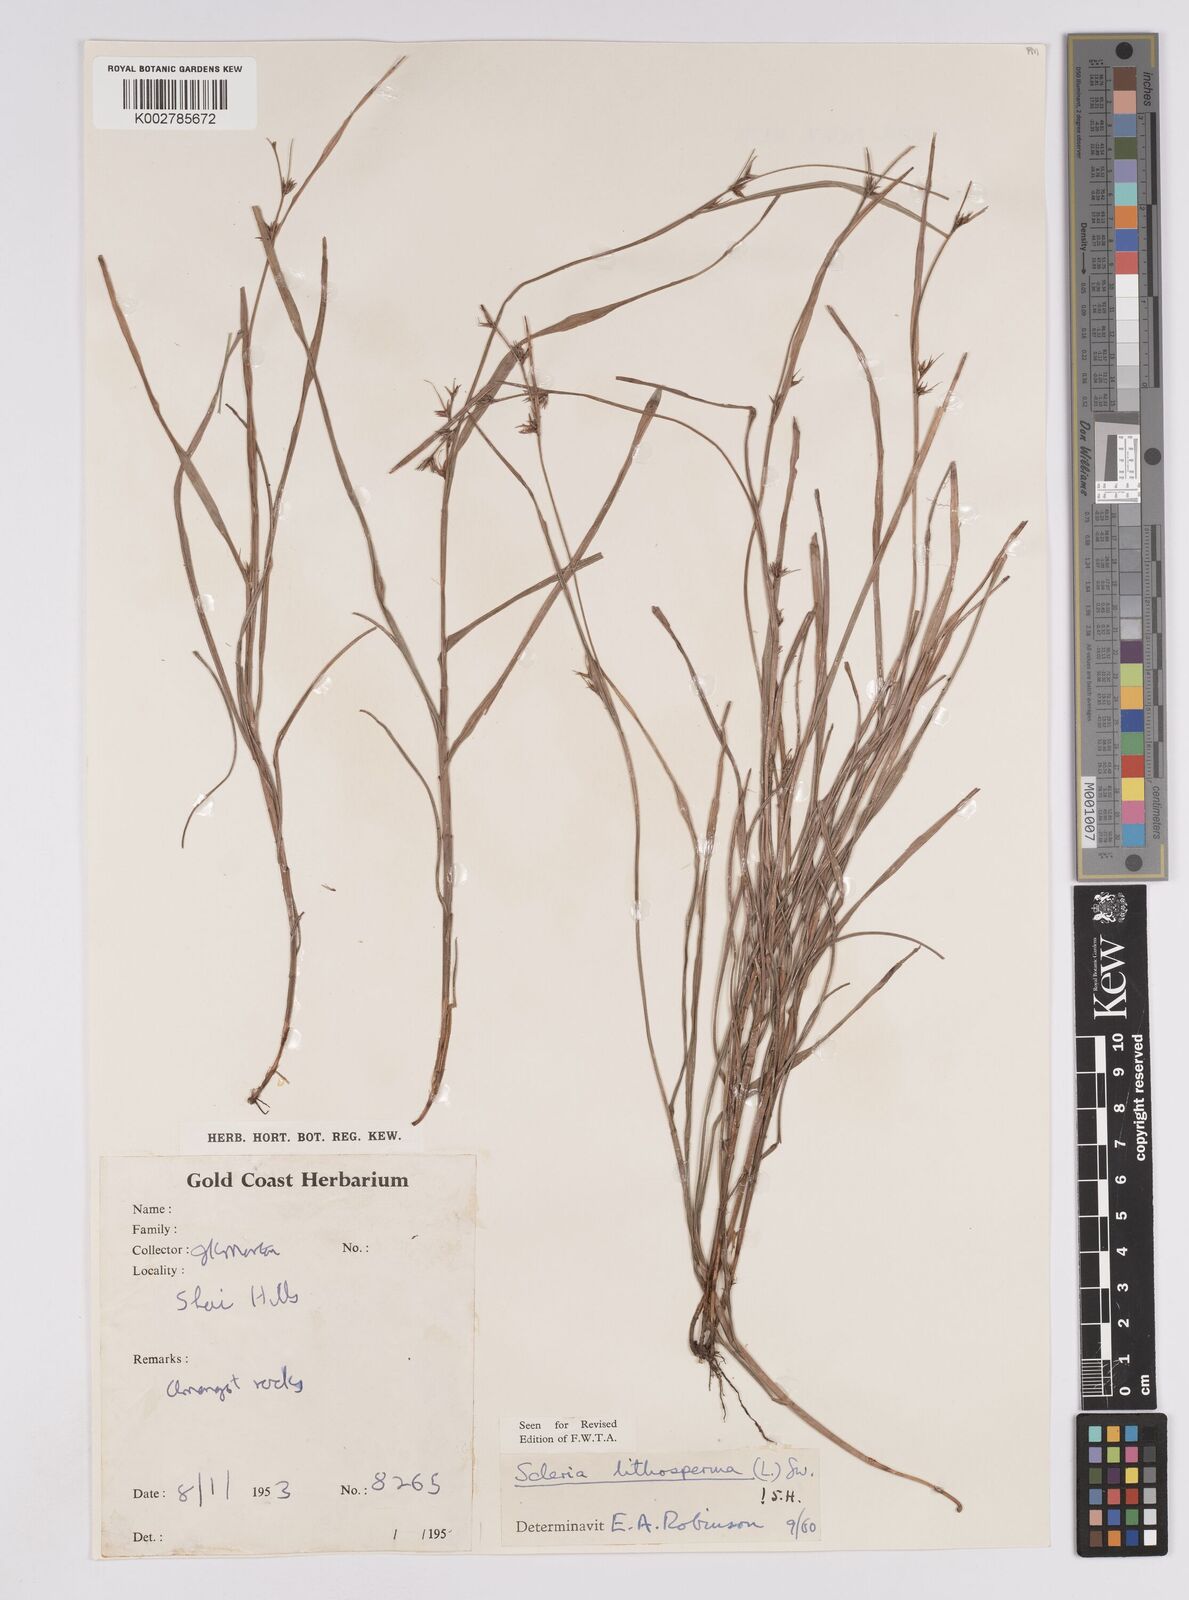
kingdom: Plantae
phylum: Tracheophyta
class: Liliopsida
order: Poales
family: Cyperaceae
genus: Scleria
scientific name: Scleria lithosperma
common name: Florida keys nut-rush
